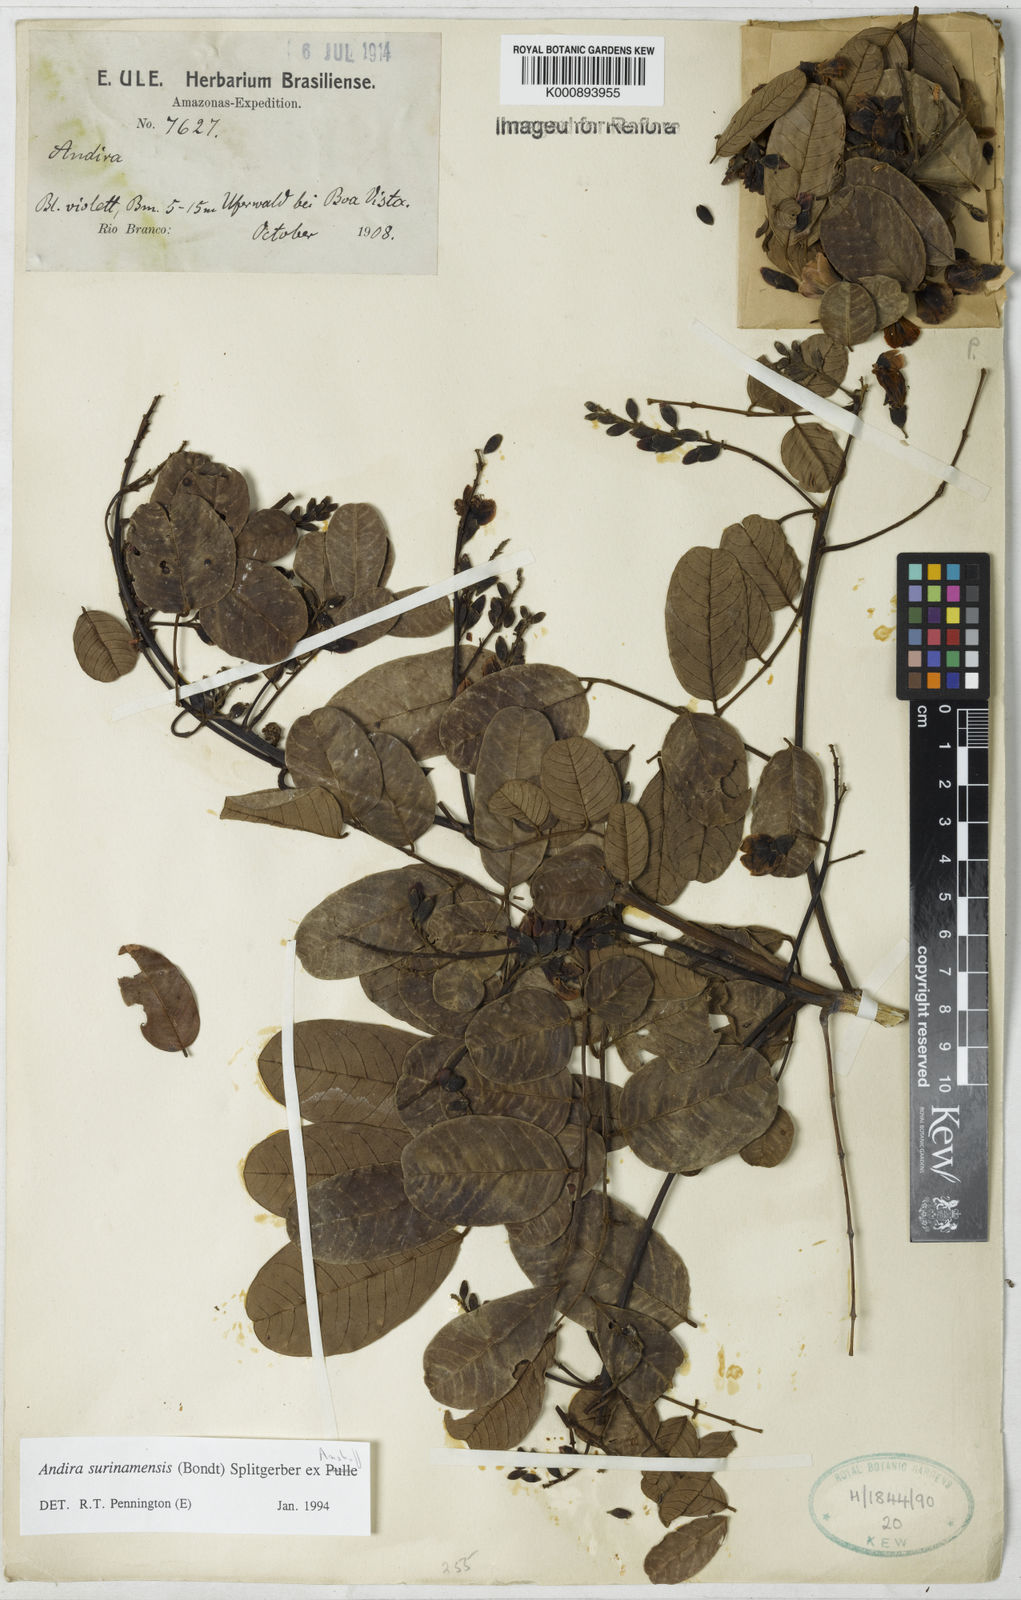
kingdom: Plantae
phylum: Tracheophyta
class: Magnoliopsida
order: Fabales
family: Fabaceae
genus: Andira
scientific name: Andira
